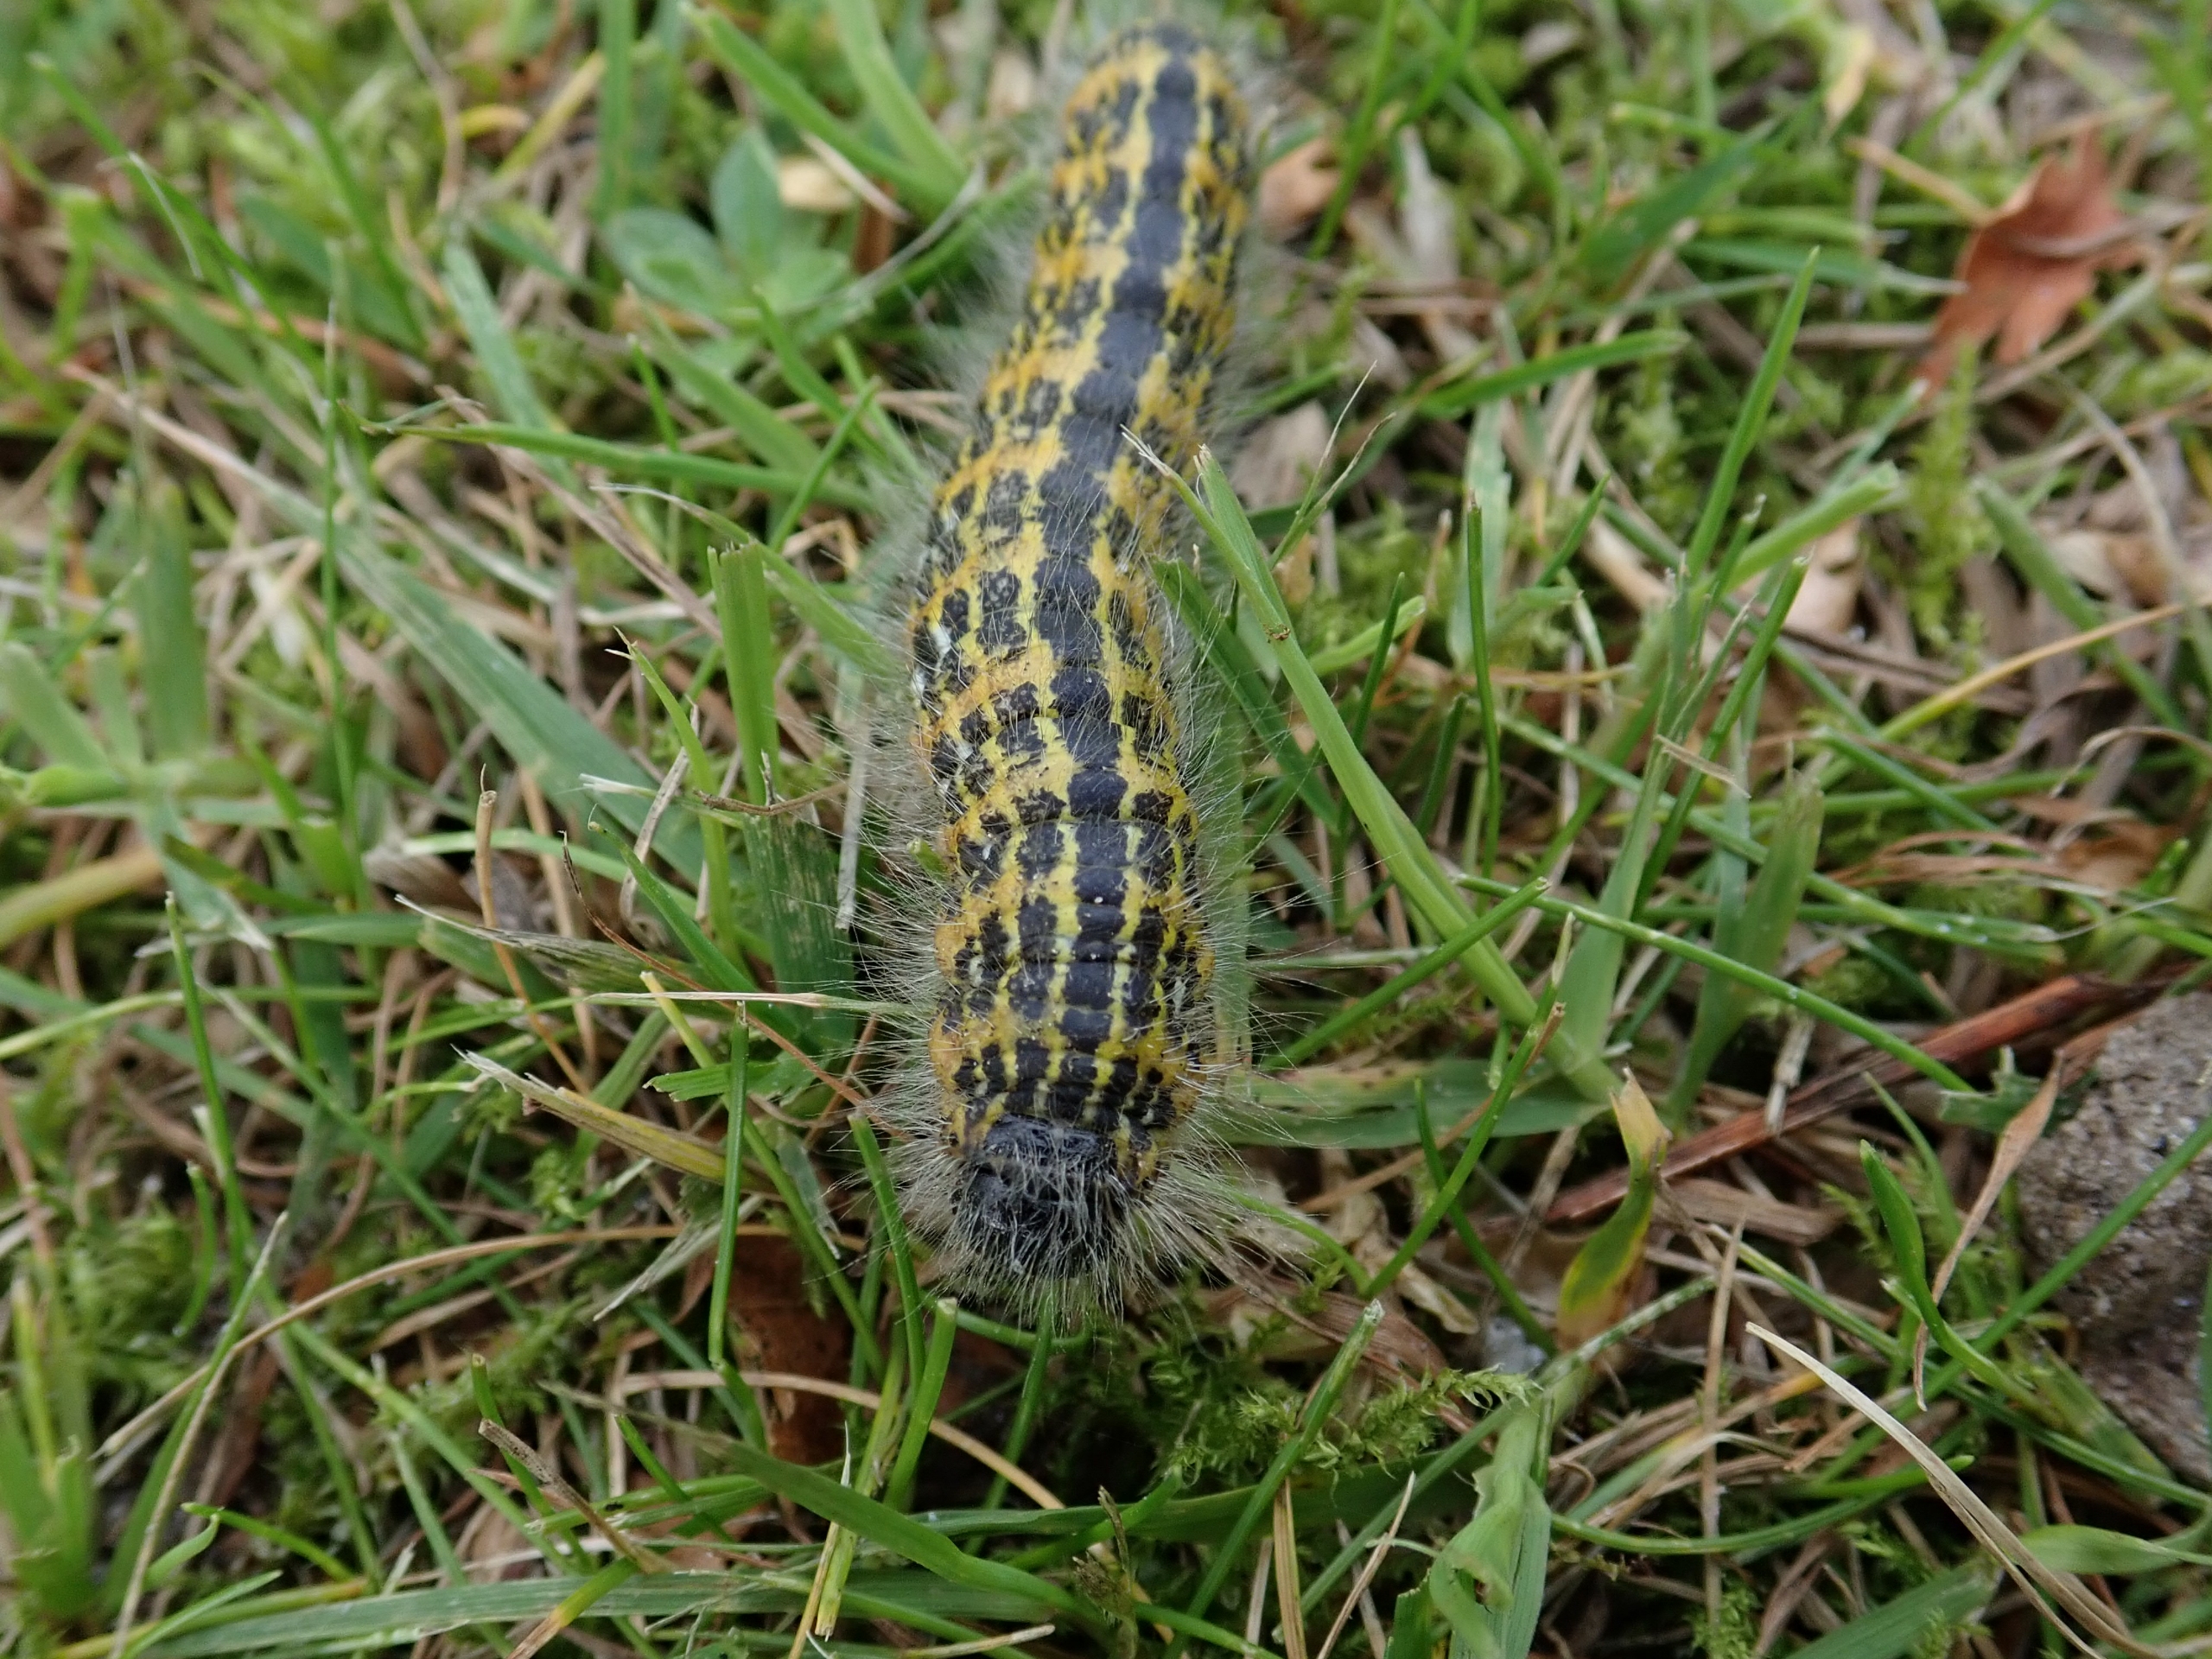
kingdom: Animalia
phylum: Arthropoda
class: Insecta
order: Lepidoptera
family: Notodontidae
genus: Phalera
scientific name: Phalera bucephala
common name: Måneplet
